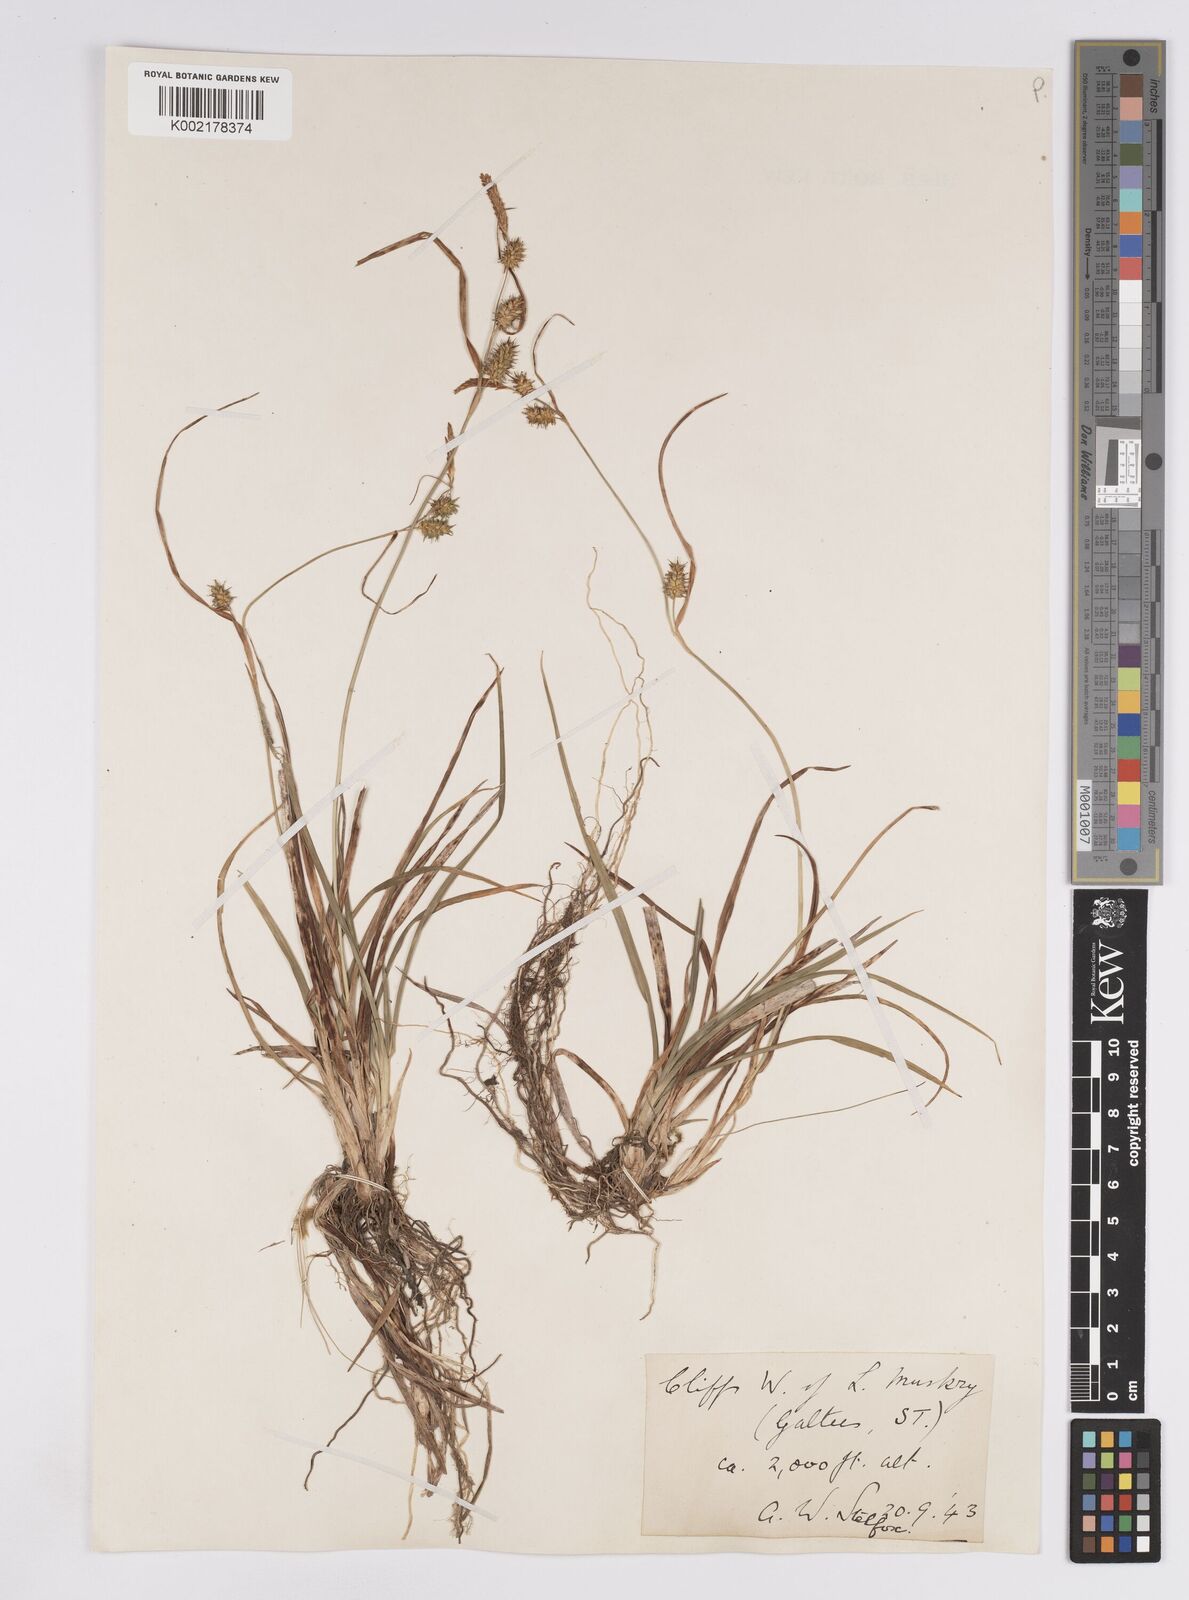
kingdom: Plantae
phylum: Tracheophyta
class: Liliopsida
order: Poales
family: Cyperaceae
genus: Carex
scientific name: Carex demissa
